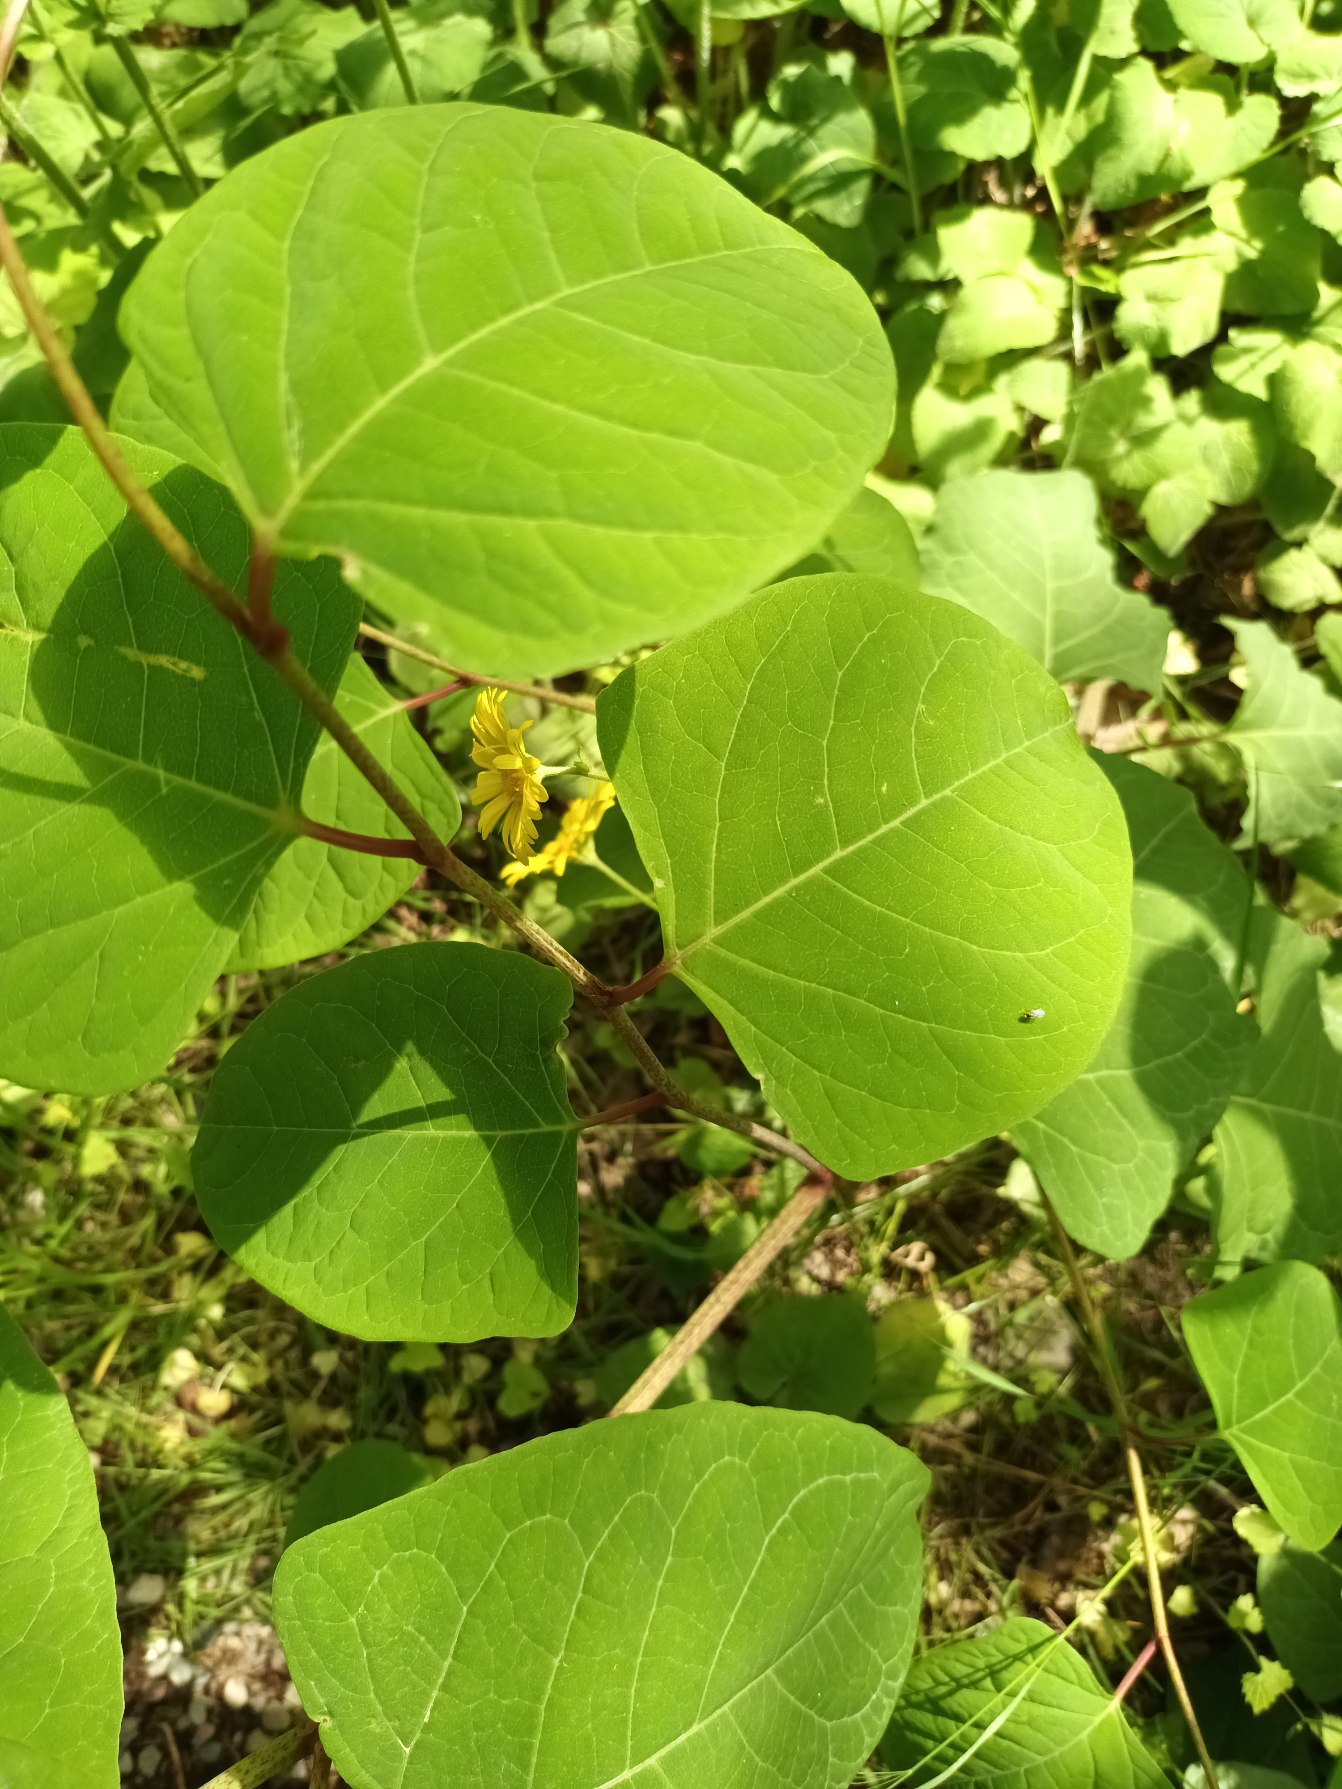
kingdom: Plantae
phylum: Tracheophyta
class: Magnoliopsida
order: Caryophyllales
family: Polygonaceae
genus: Reynoutria
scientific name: Reynoutria japonica
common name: Japan-pileurt
